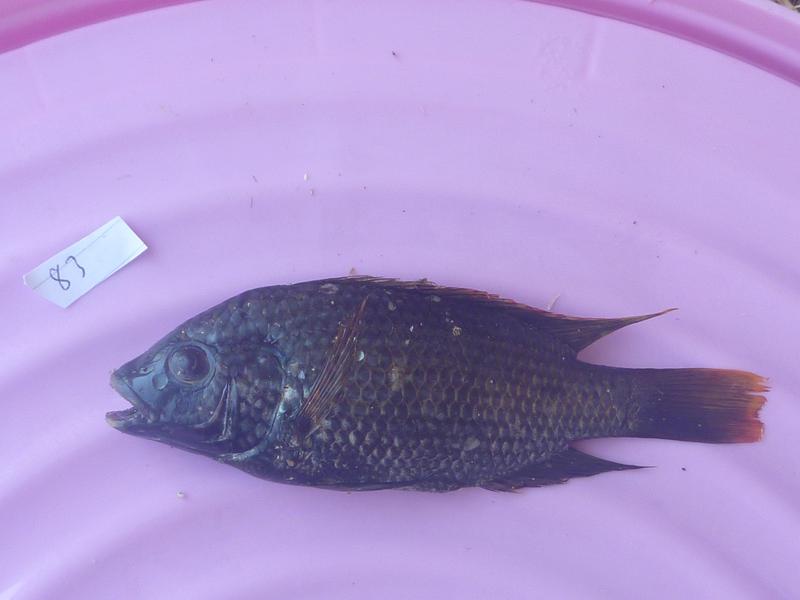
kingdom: Animalia
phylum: Chordata
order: Perciformes
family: Cichlidae
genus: Oreochromis
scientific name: Oreochromis shiranus
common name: Chilwa tilapia
